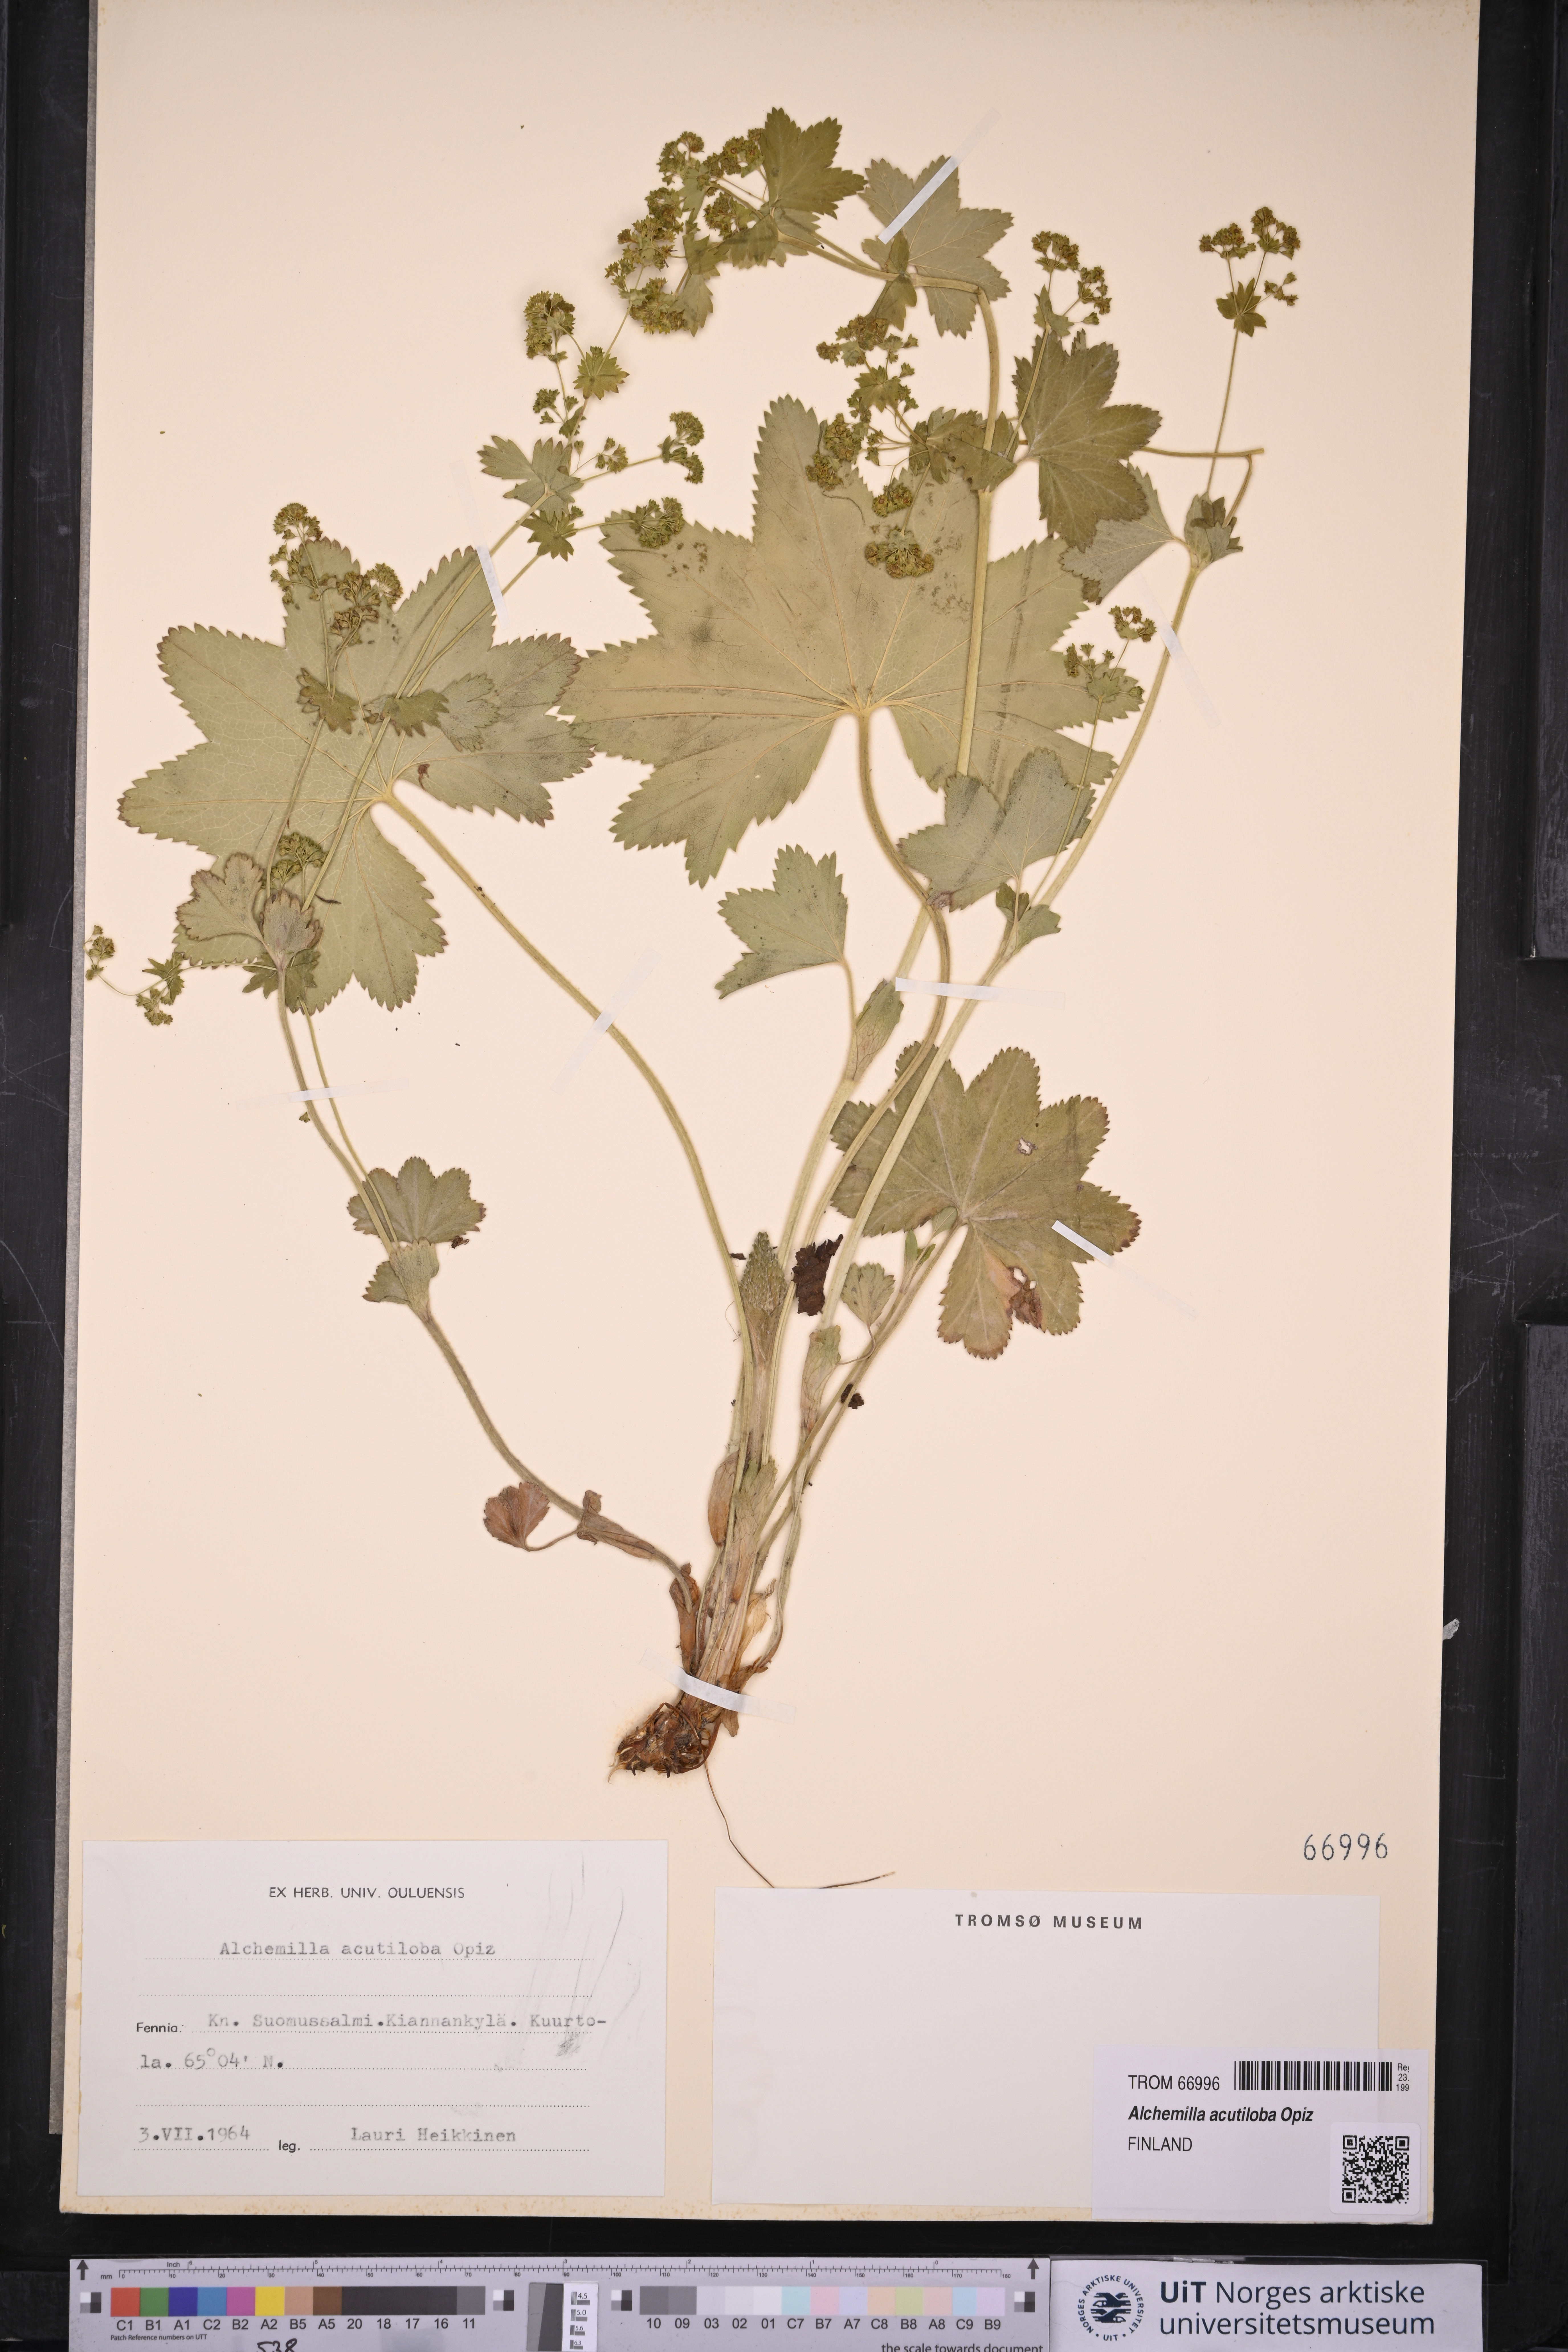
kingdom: Plantae
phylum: Tracheophyta
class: Magnoliopsida
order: Rosales
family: Rosaceae
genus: Alchemilla
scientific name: Alchemilla vulgaris
